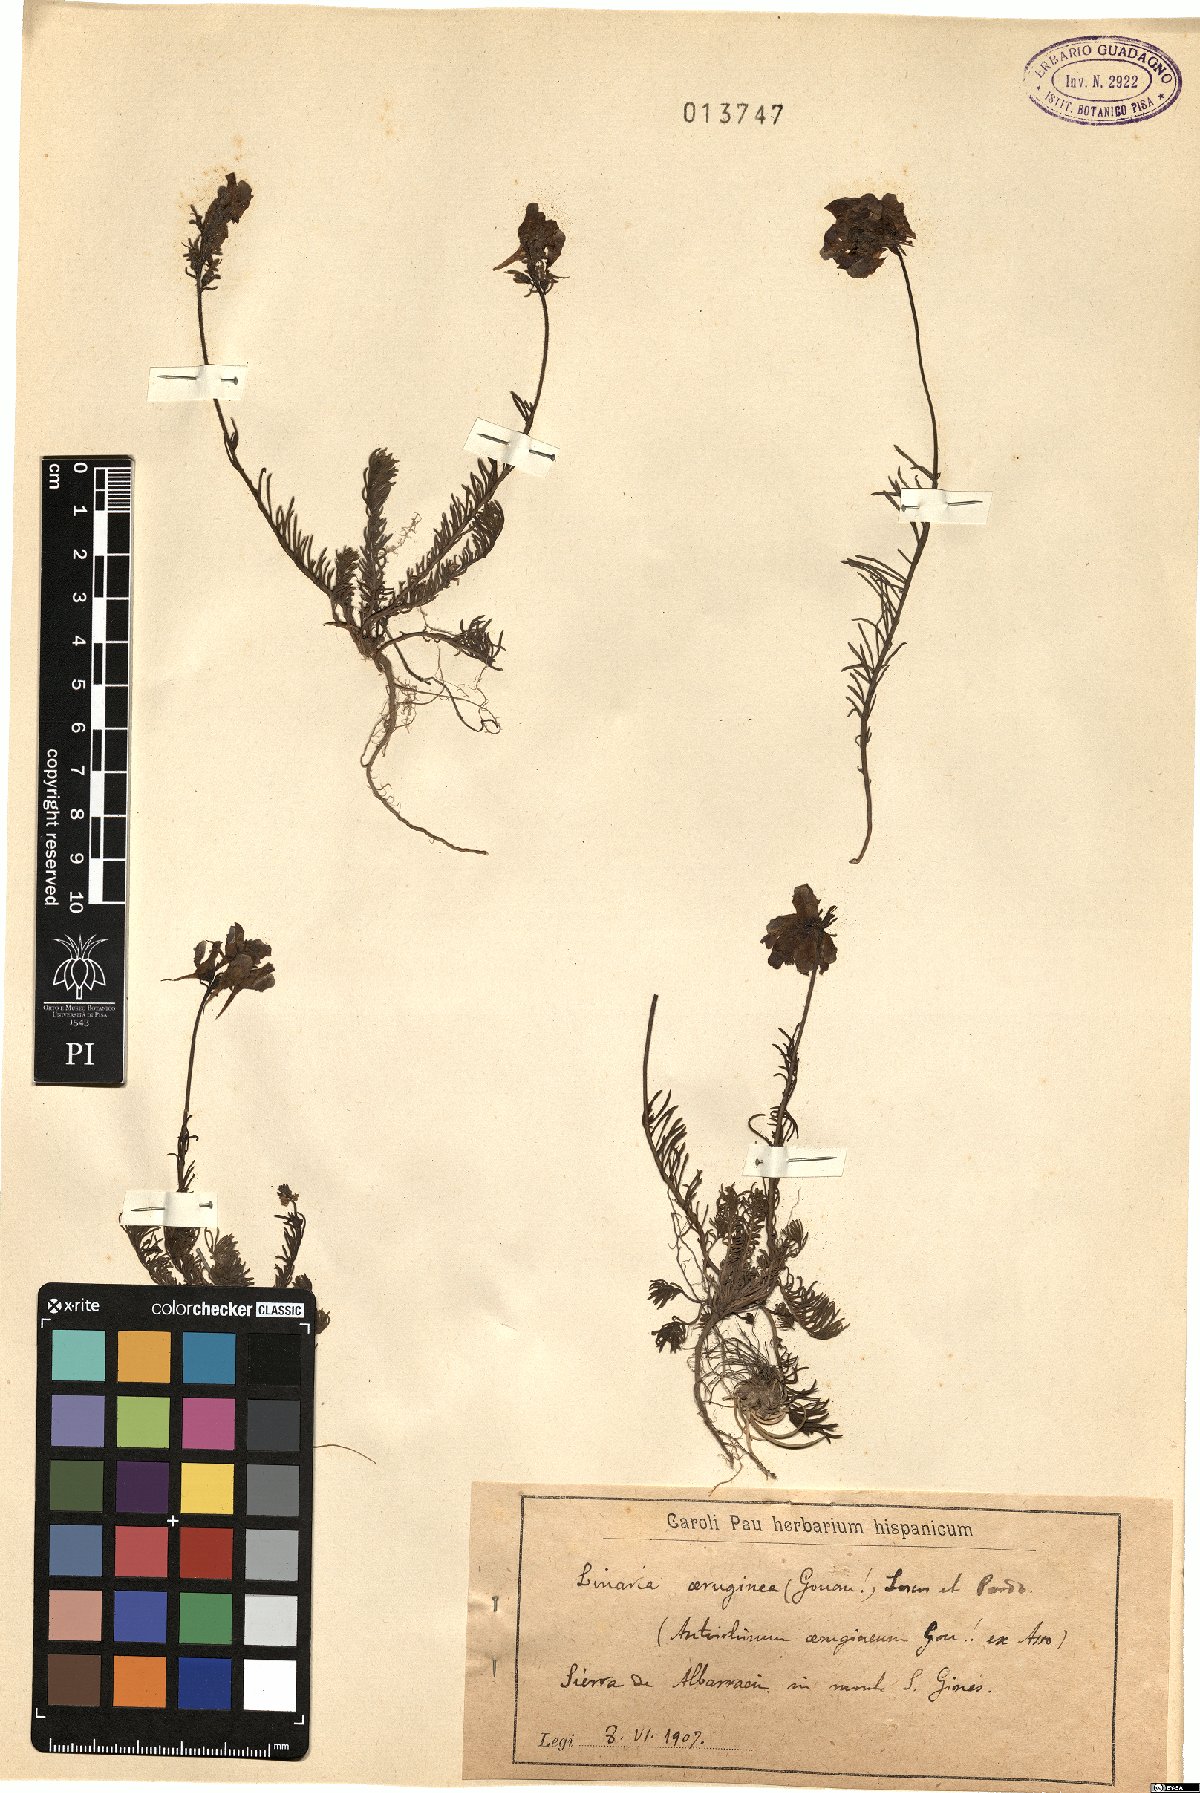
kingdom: Plantae
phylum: Tracheophyta
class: Magnoliopsida
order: Lamiales
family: Plantaginaceae
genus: Linaria
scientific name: Linaria aeruginea
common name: Roadside toadflax
